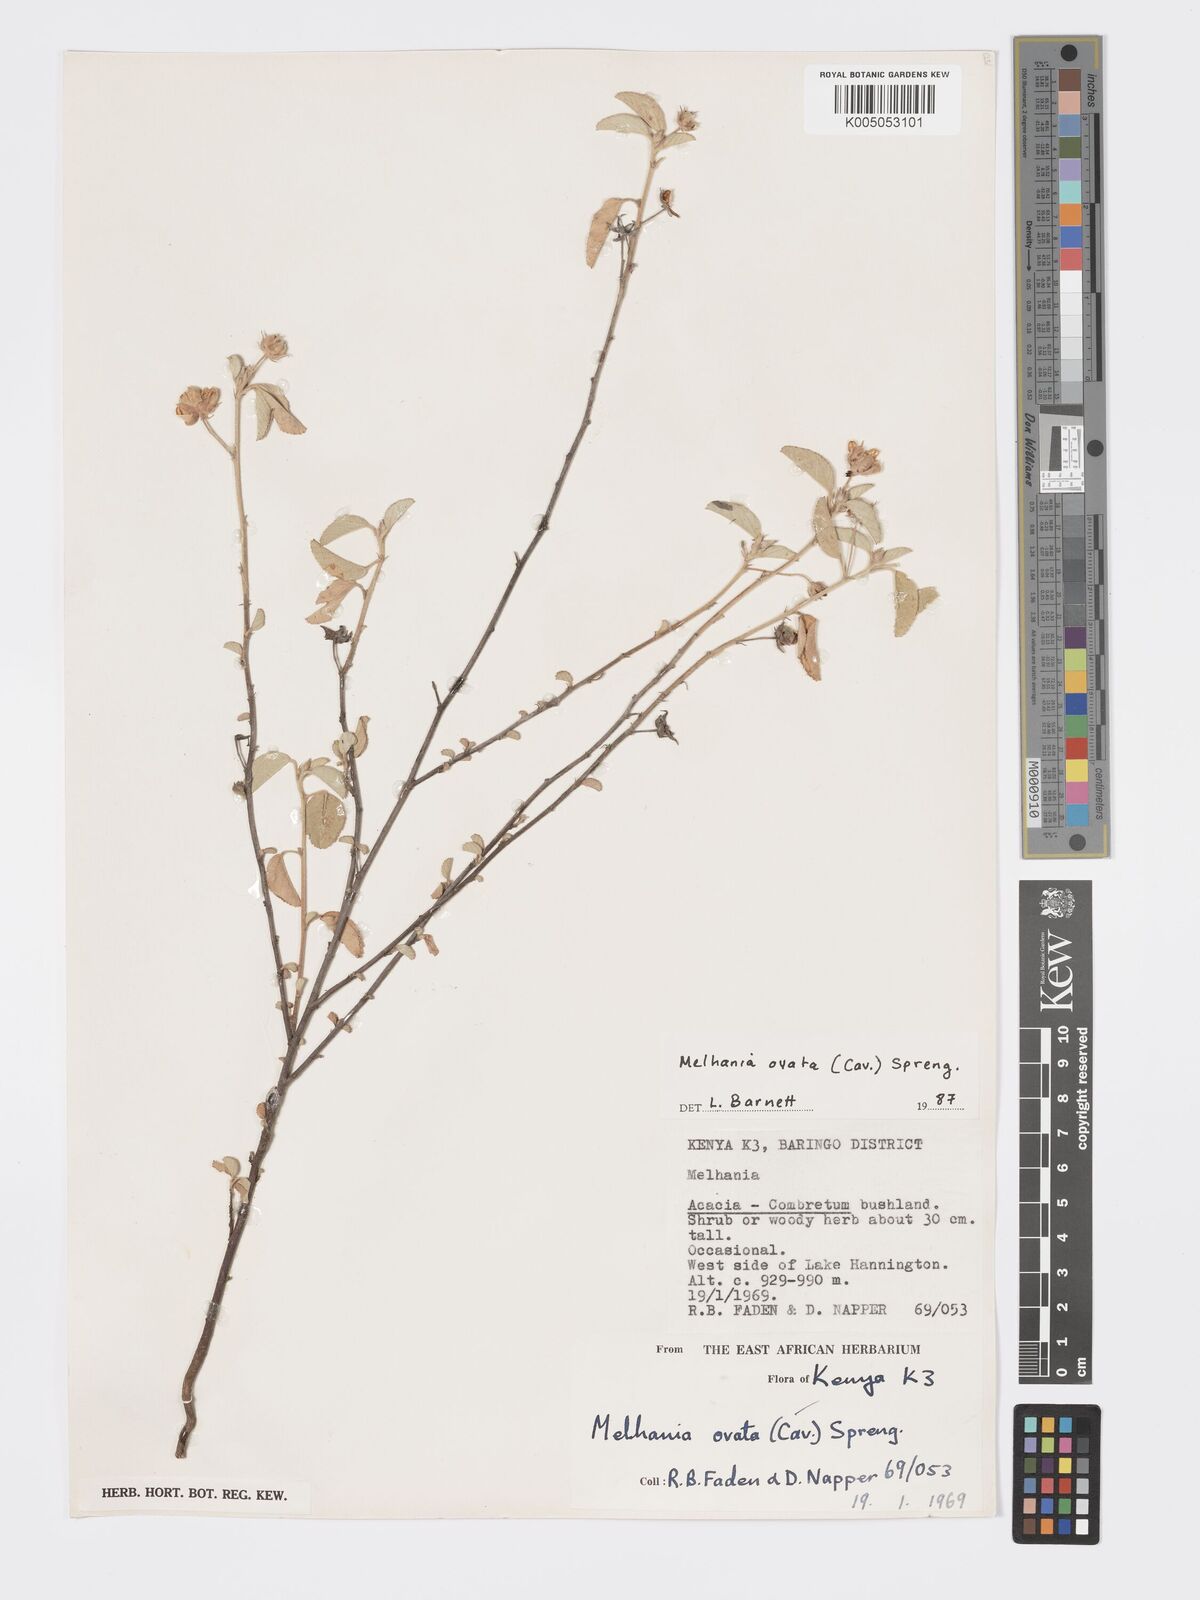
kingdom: Plantae
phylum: Tracheophyta
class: Magnoliopsida
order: Malvales
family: Malvaceae
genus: Melhania
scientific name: Melhania ovata
